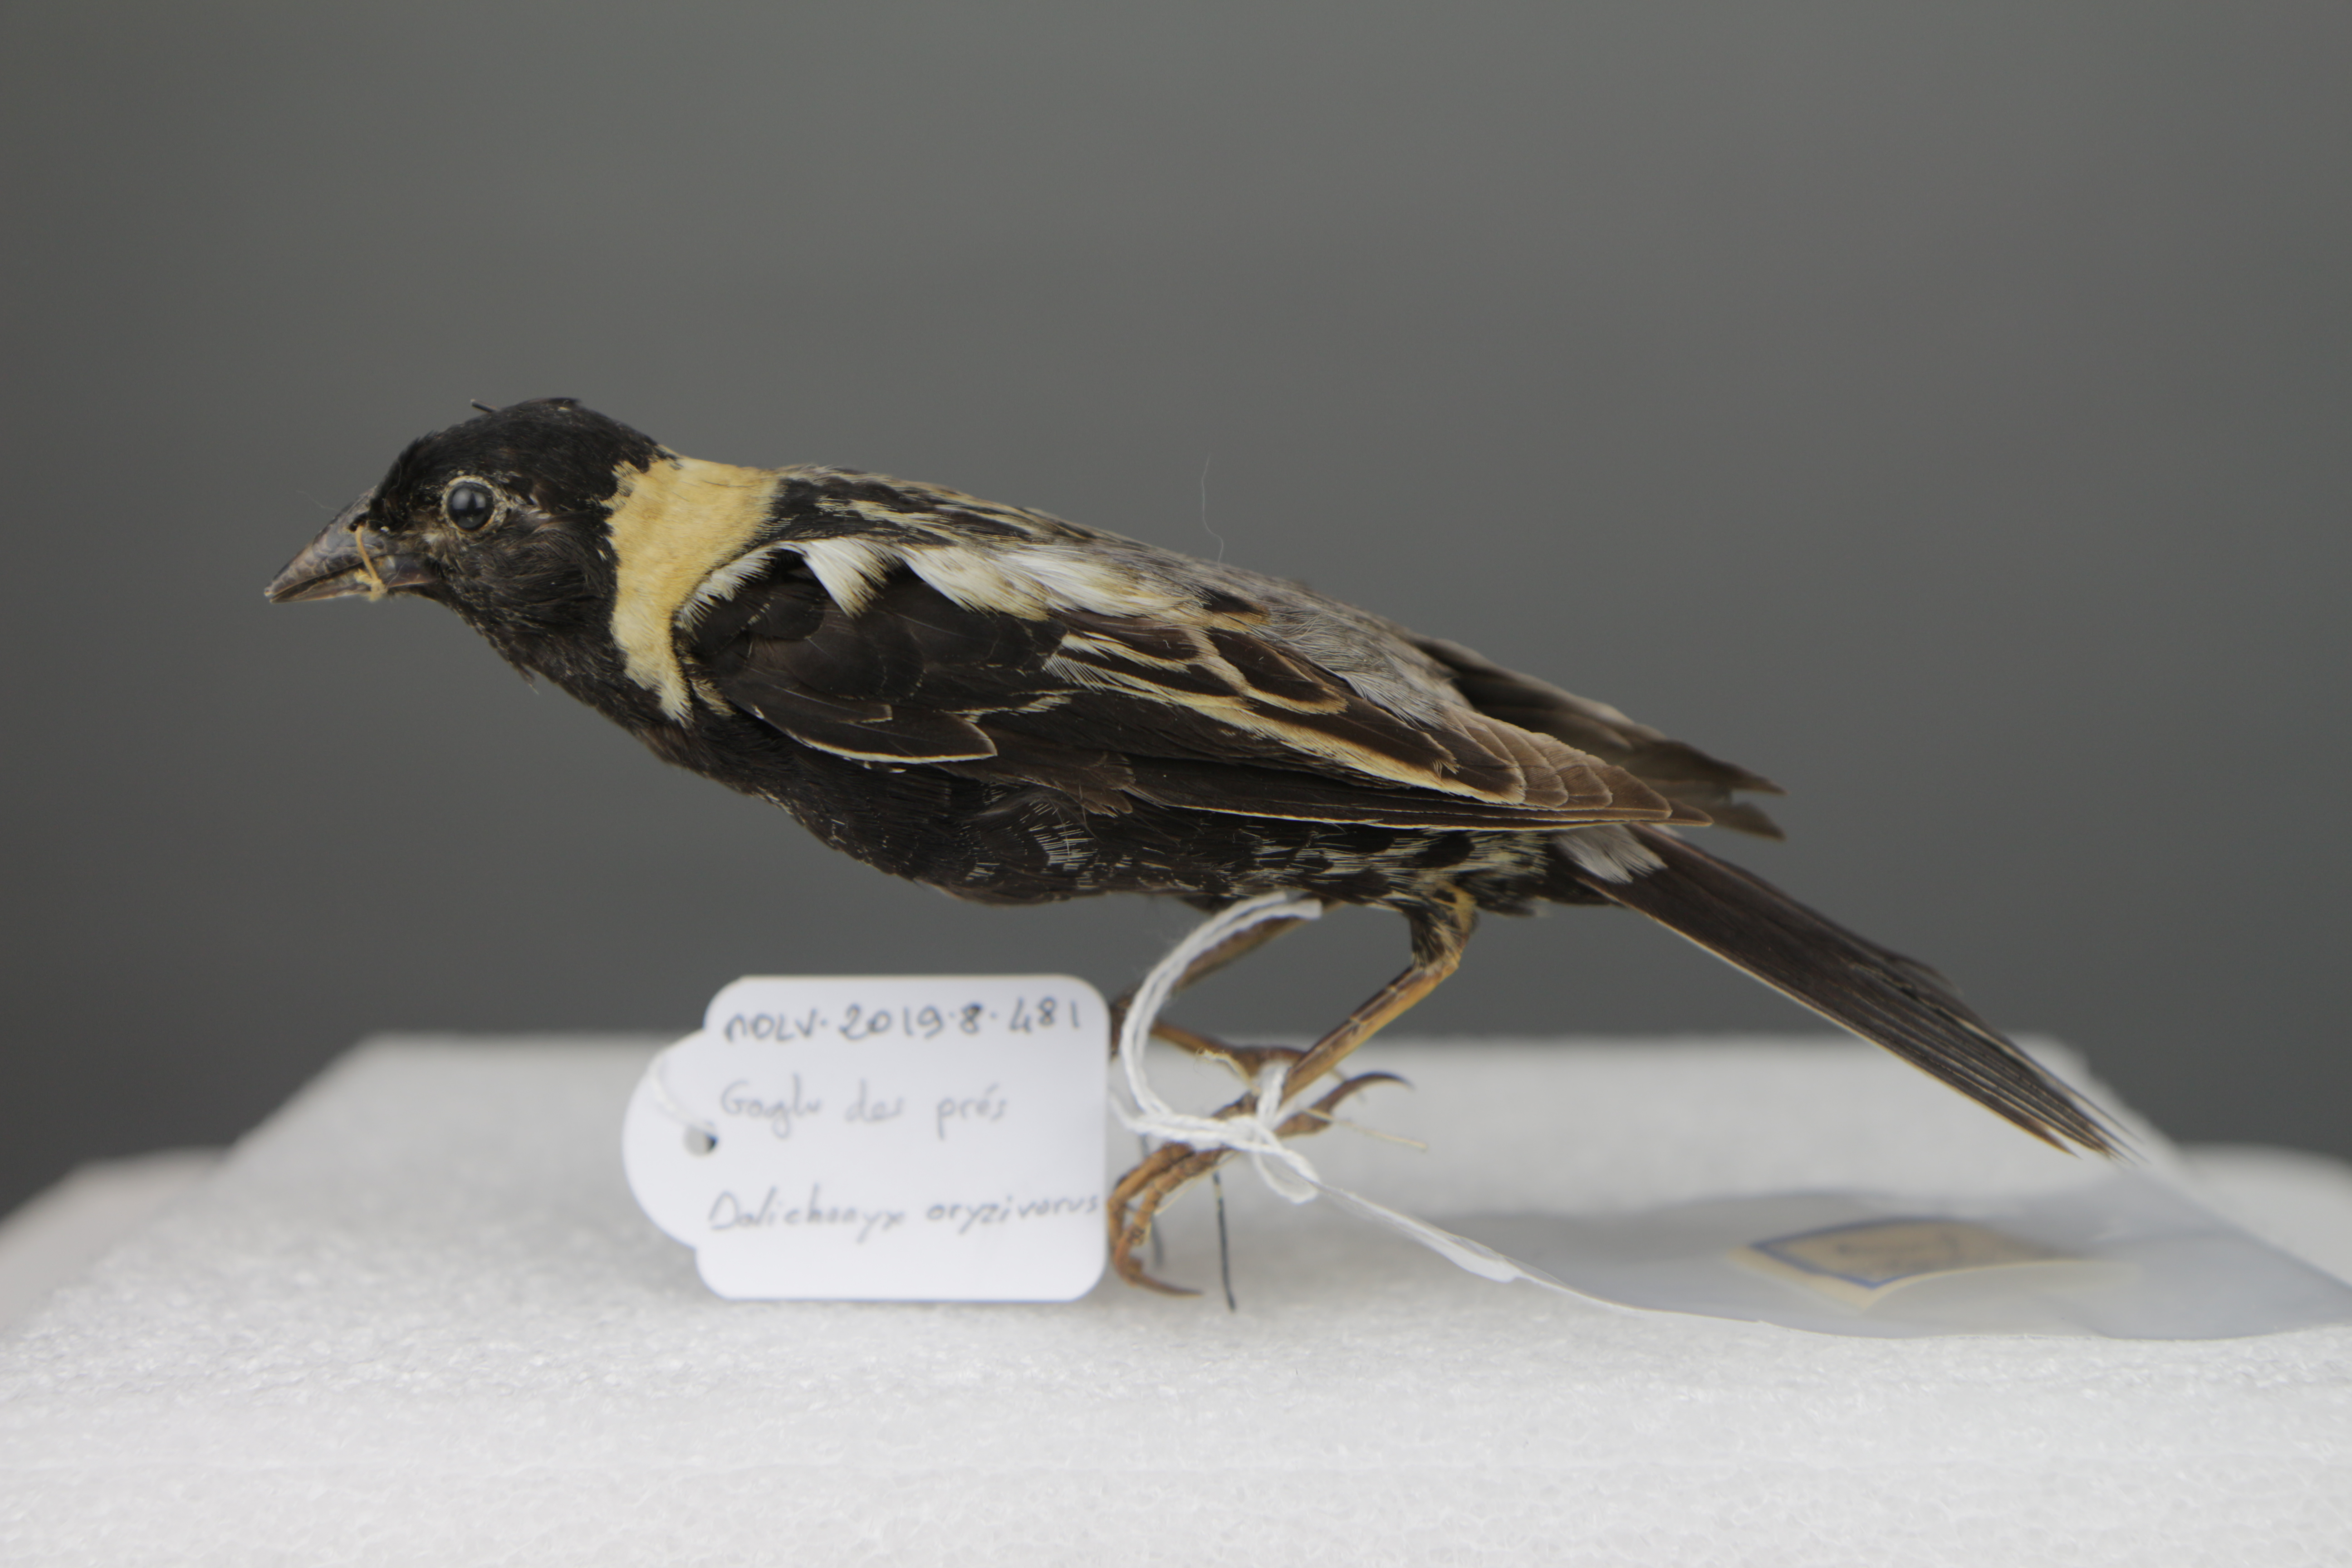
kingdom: Animalia
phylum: Chordata
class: Aves
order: Passeriformes
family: Icteridae
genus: Dolichonyx
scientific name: Dolichonyx oryzivorus
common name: Bobolink
